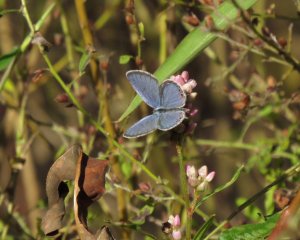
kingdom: Animalia
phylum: Arthropoda
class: Insecta
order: Lepidoptera
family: Lycaenidae
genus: Elkalyce
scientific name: Elkalyce comyntas
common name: Eastern Tailed-Blue
